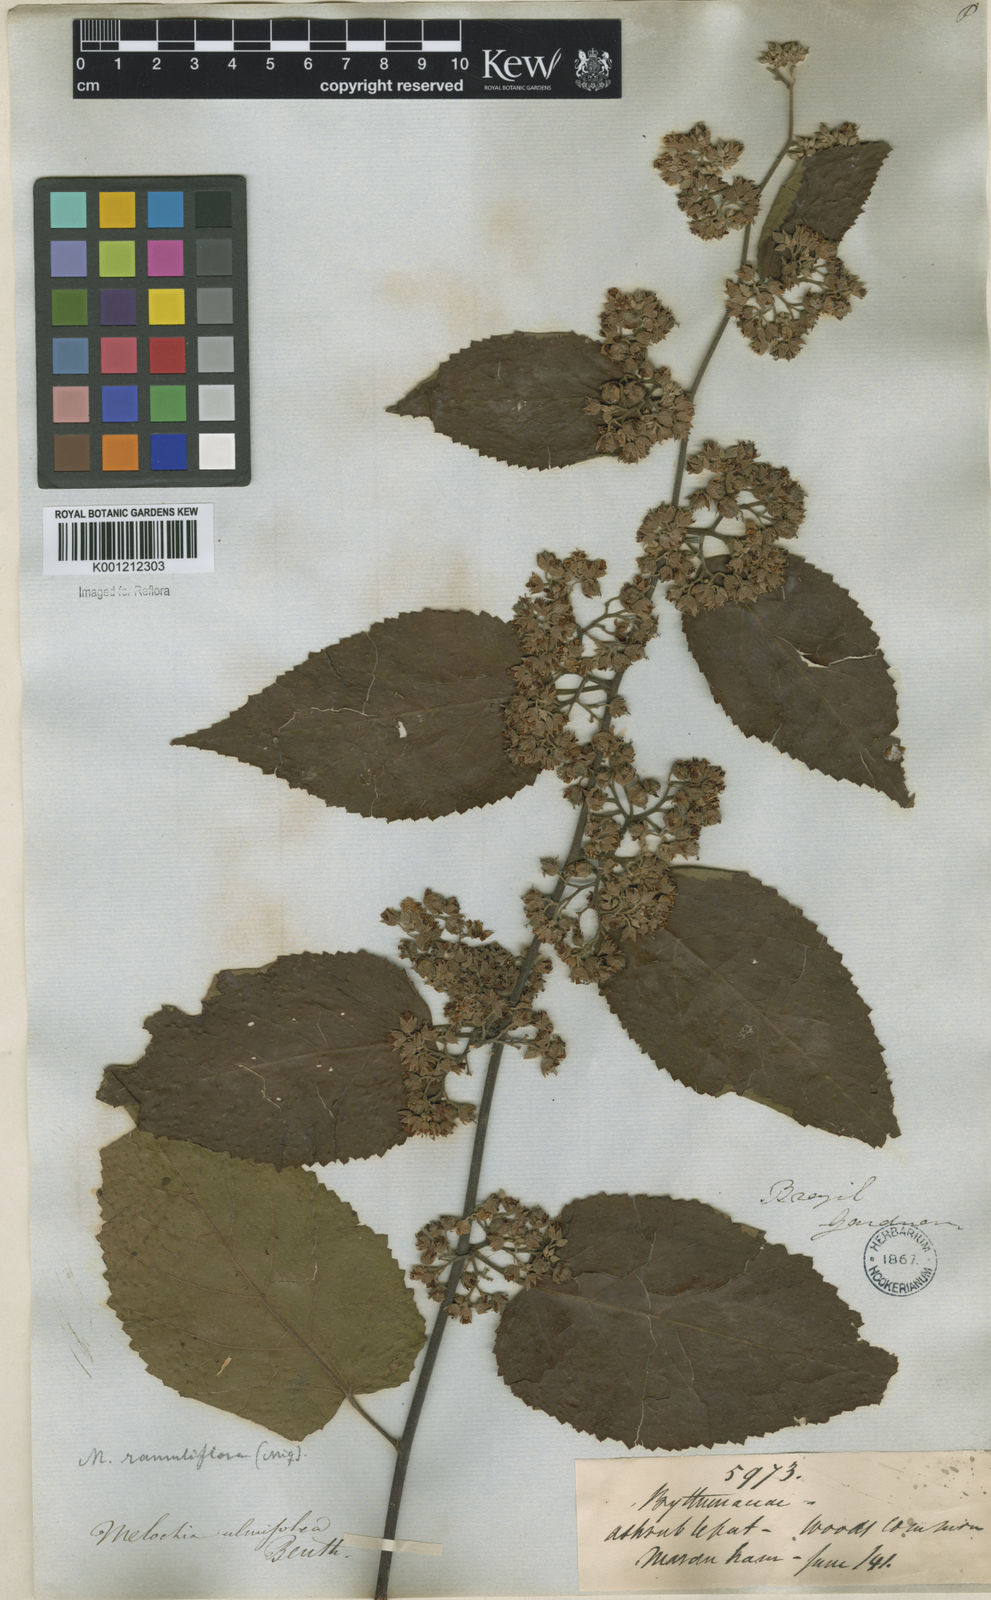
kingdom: Plantae
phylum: Tracheophyta
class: Magnoliopsida
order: Malvales
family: Malvaceae
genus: Melochia
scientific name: Melochia ulmifolia
